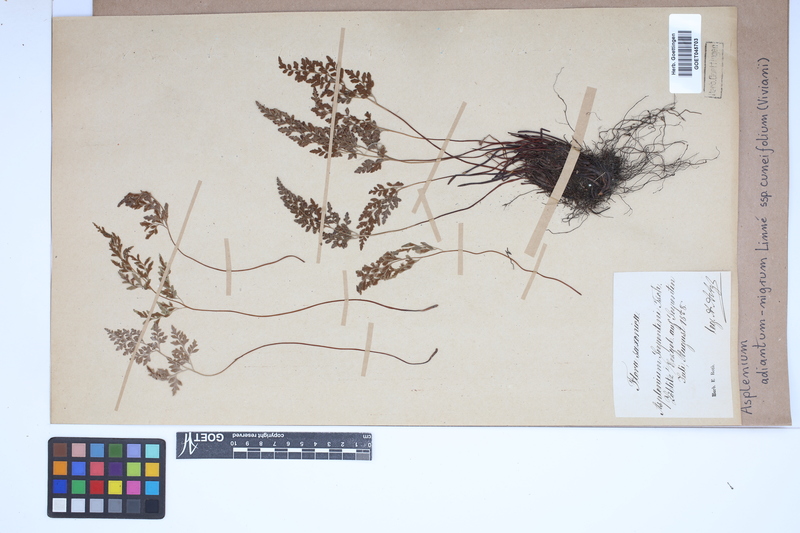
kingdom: Plantae
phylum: Tracheophyta
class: Polypodiopsida
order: Polypodiales
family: Aspleniaceae
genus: Asplenium
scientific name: Asplenium cuneifolium
